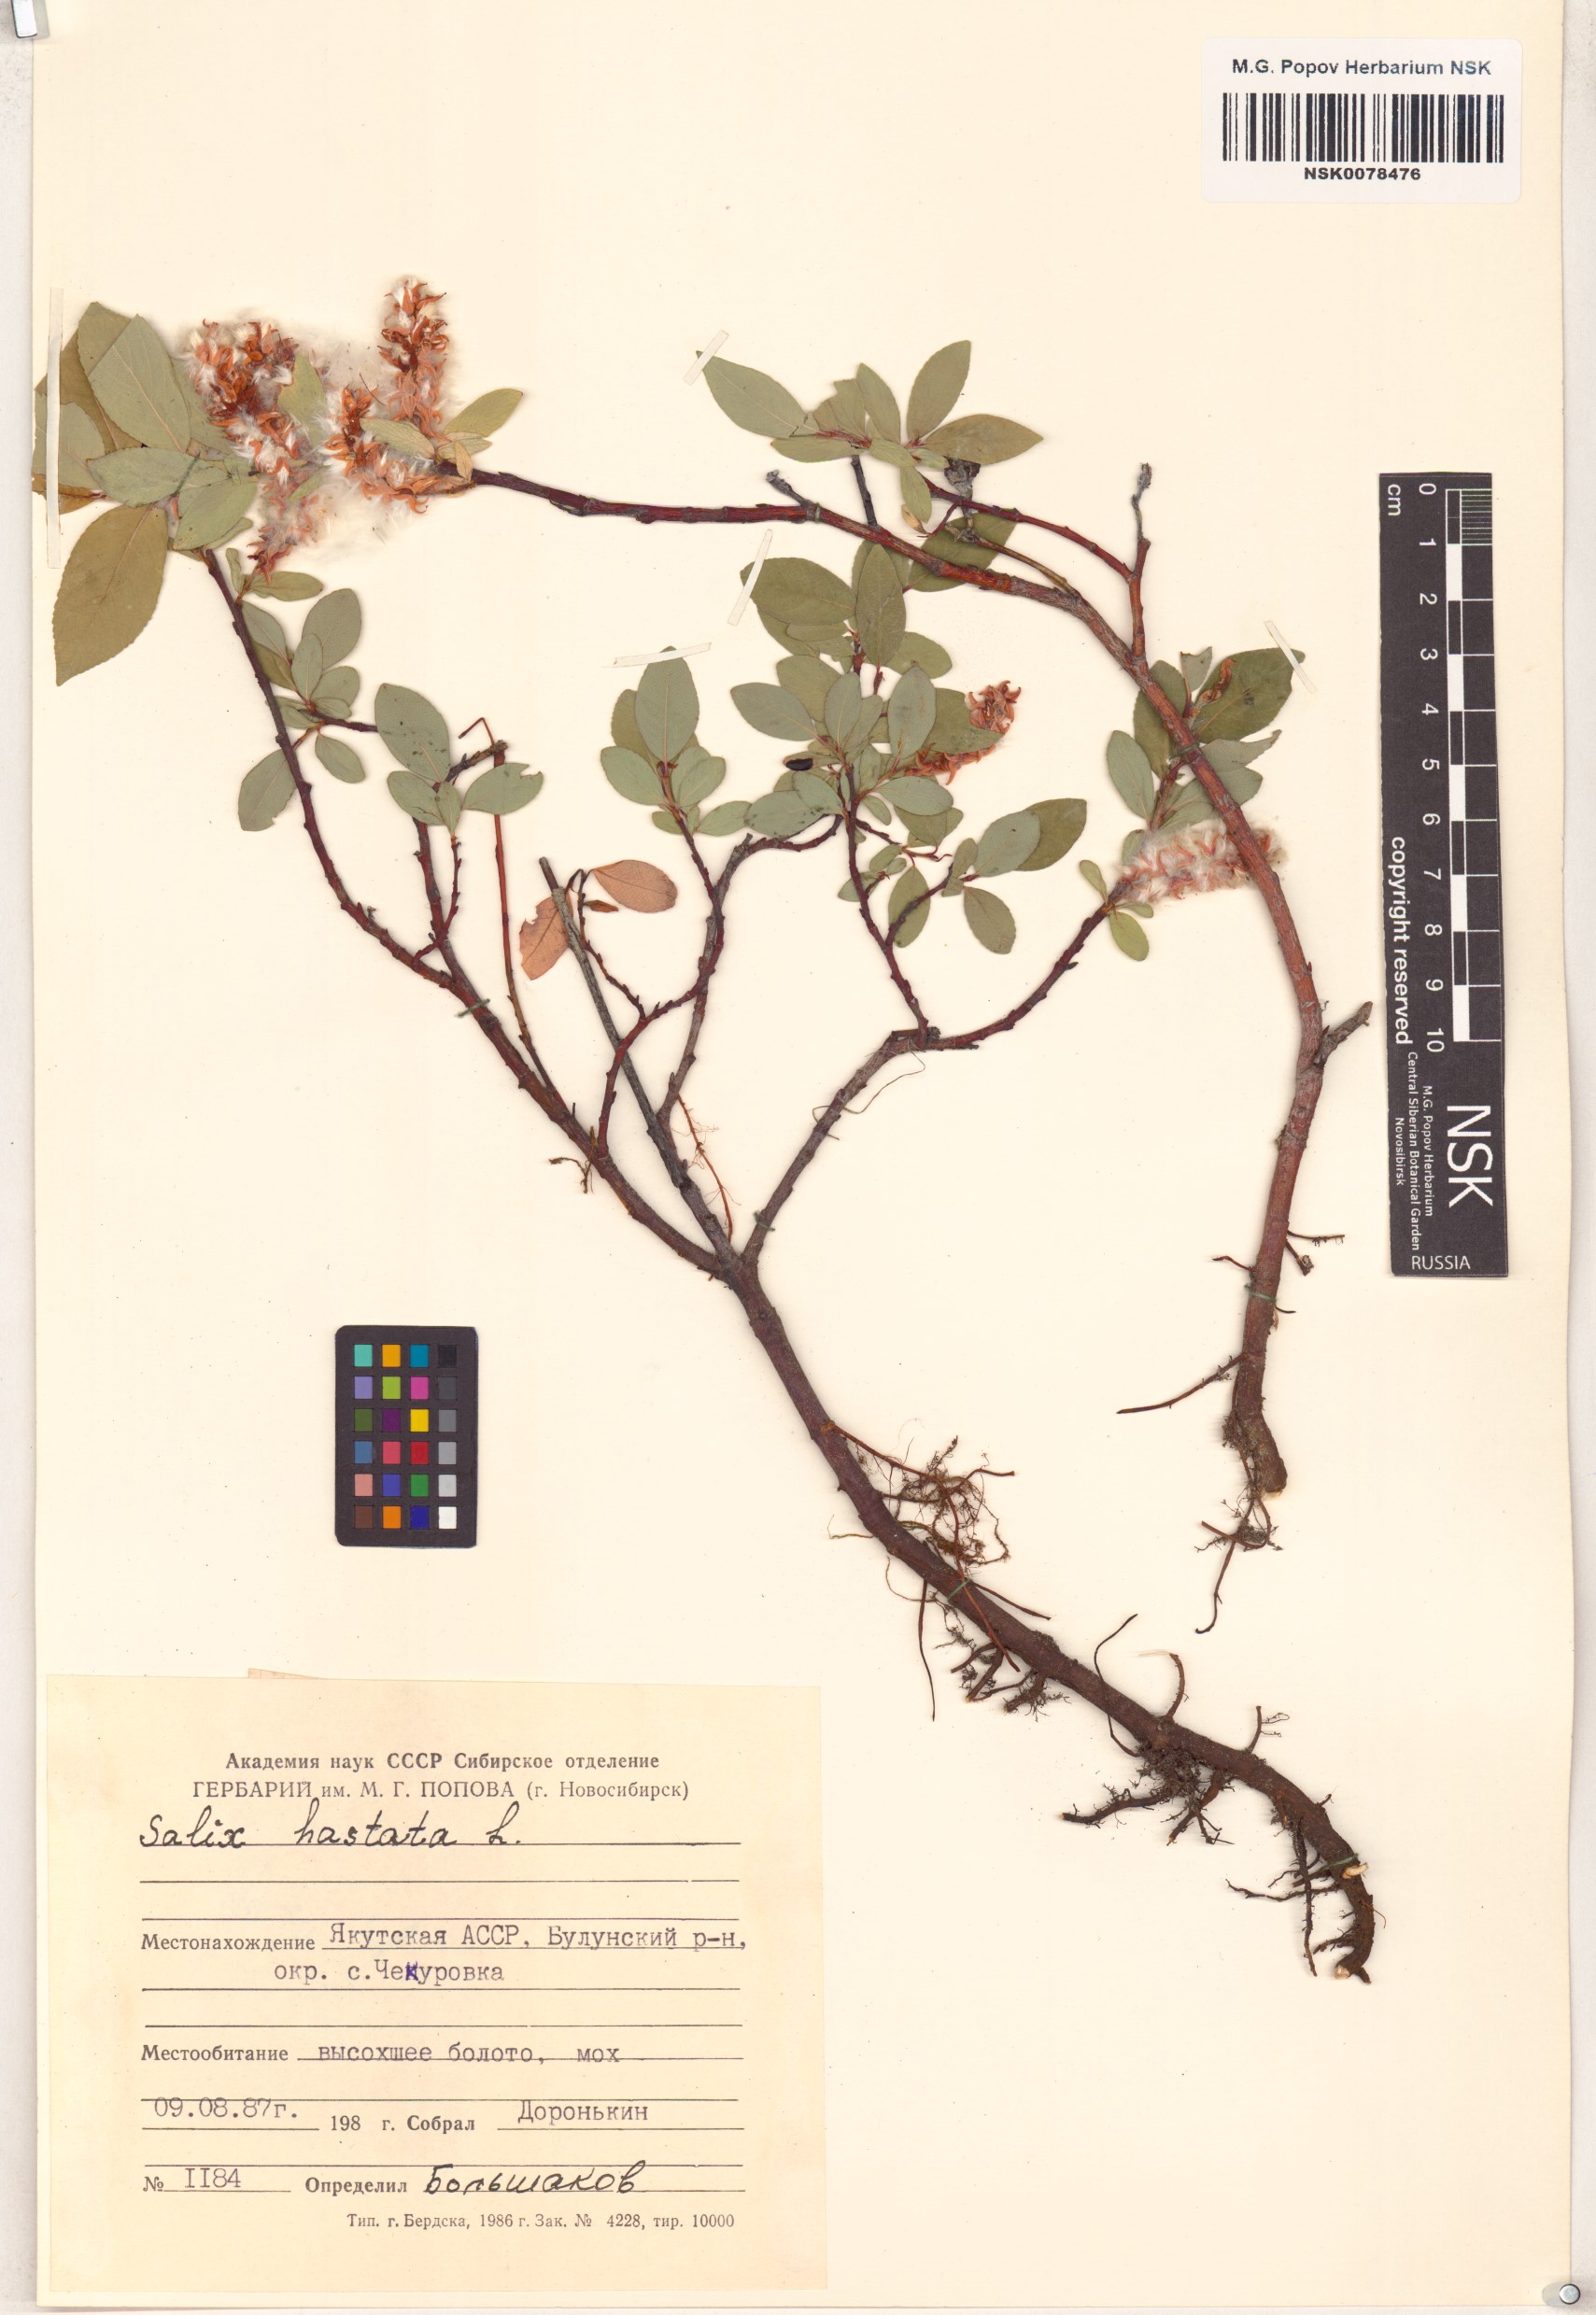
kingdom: Plantae
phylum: Tracheophyta
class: Magnoliopsida
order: Malpighiales
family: Salicaceae
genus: Salix
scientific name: Salix hastata
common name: Halberd willow
